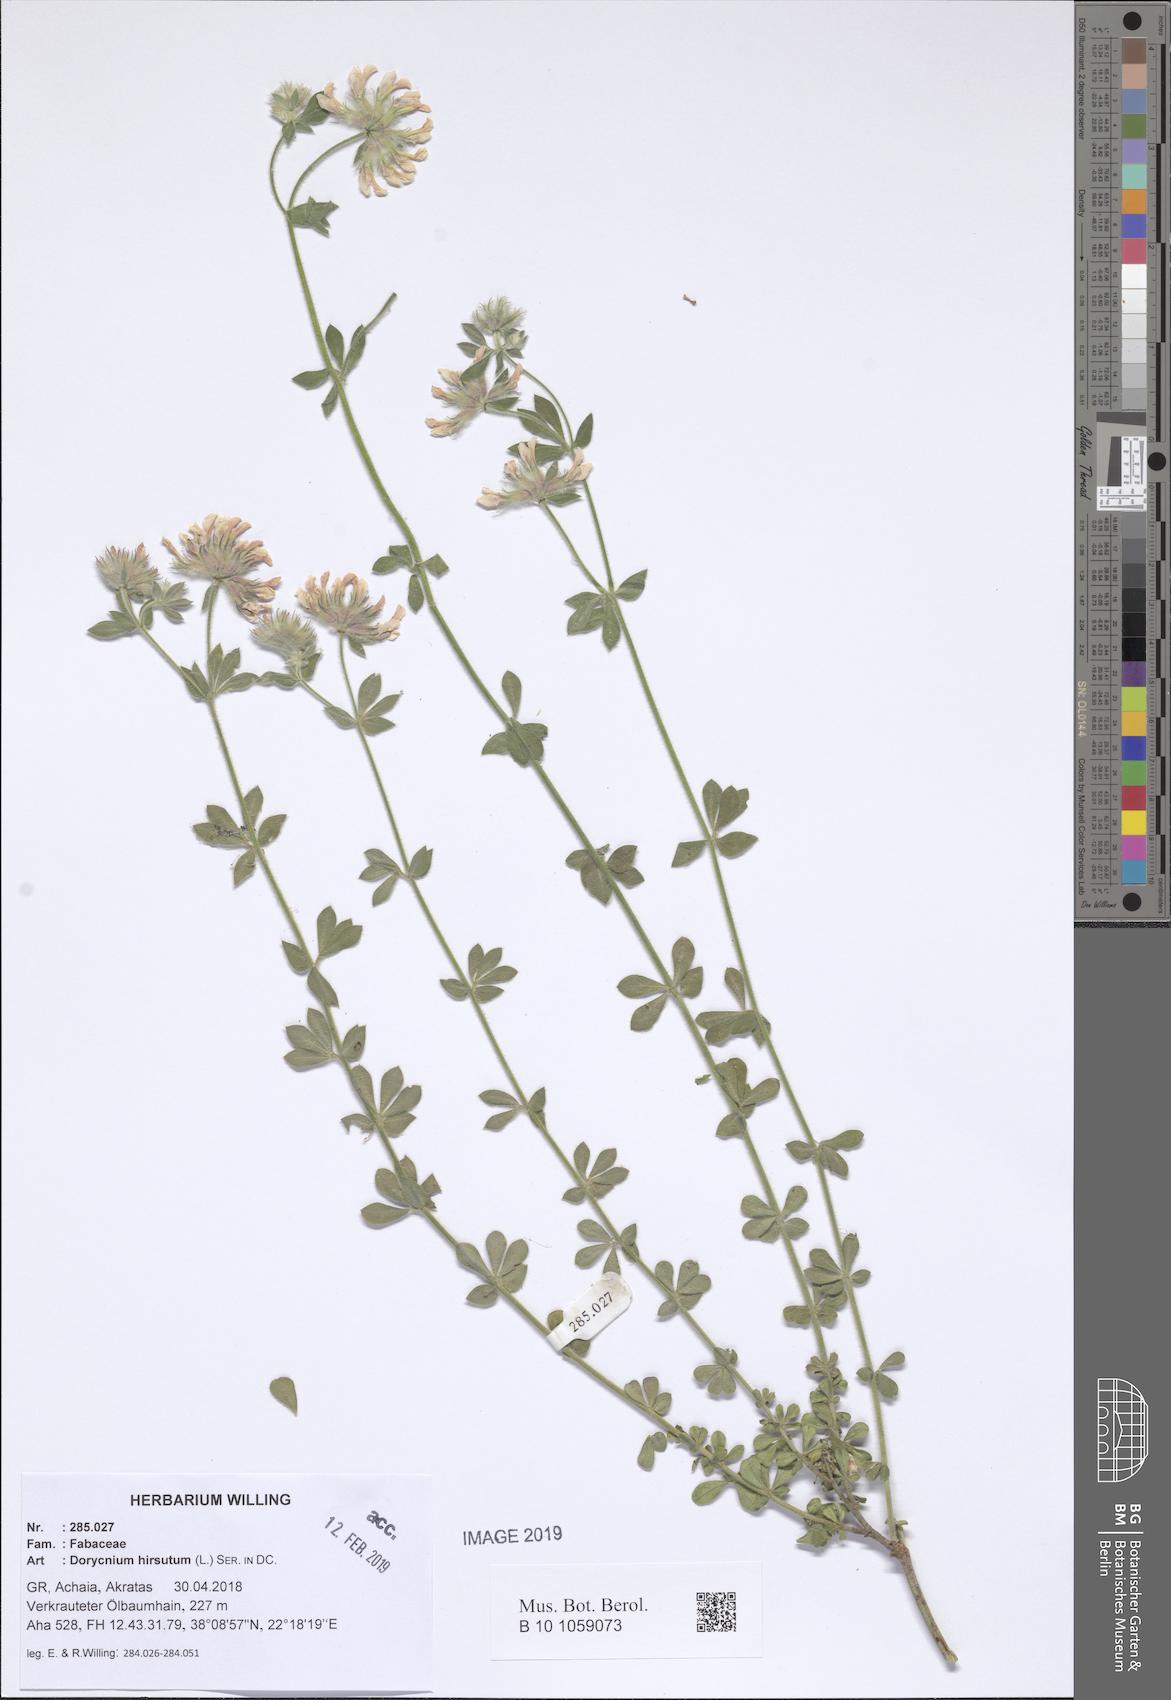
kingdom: Plantae
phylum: Tracheophyta
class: Magnoliopsida
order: Fabales
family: Fabaceae
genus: Lotus
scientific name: Lotus hirsutus
